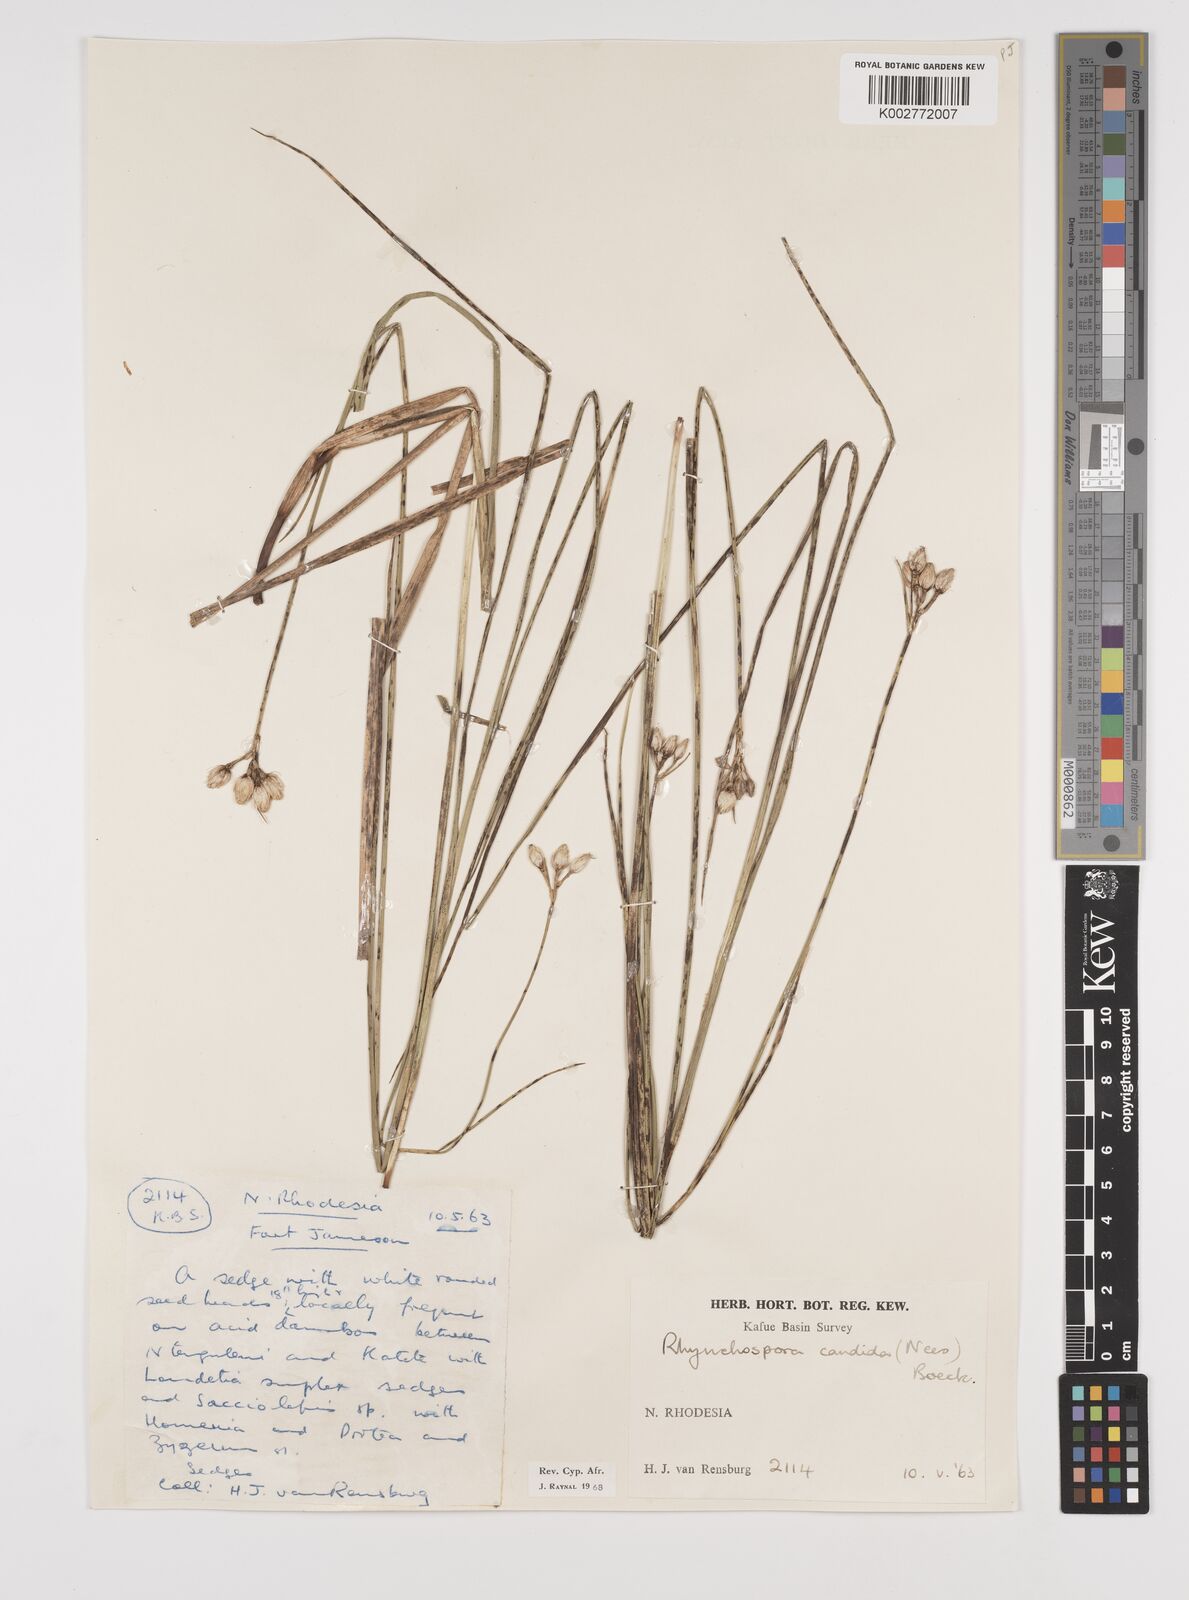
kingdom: Plantae
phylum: Tracheophyta
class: Liliopsida
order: Poales
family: Cyperaceae
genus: Rhynchospora
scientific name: Rhynchospora candida
